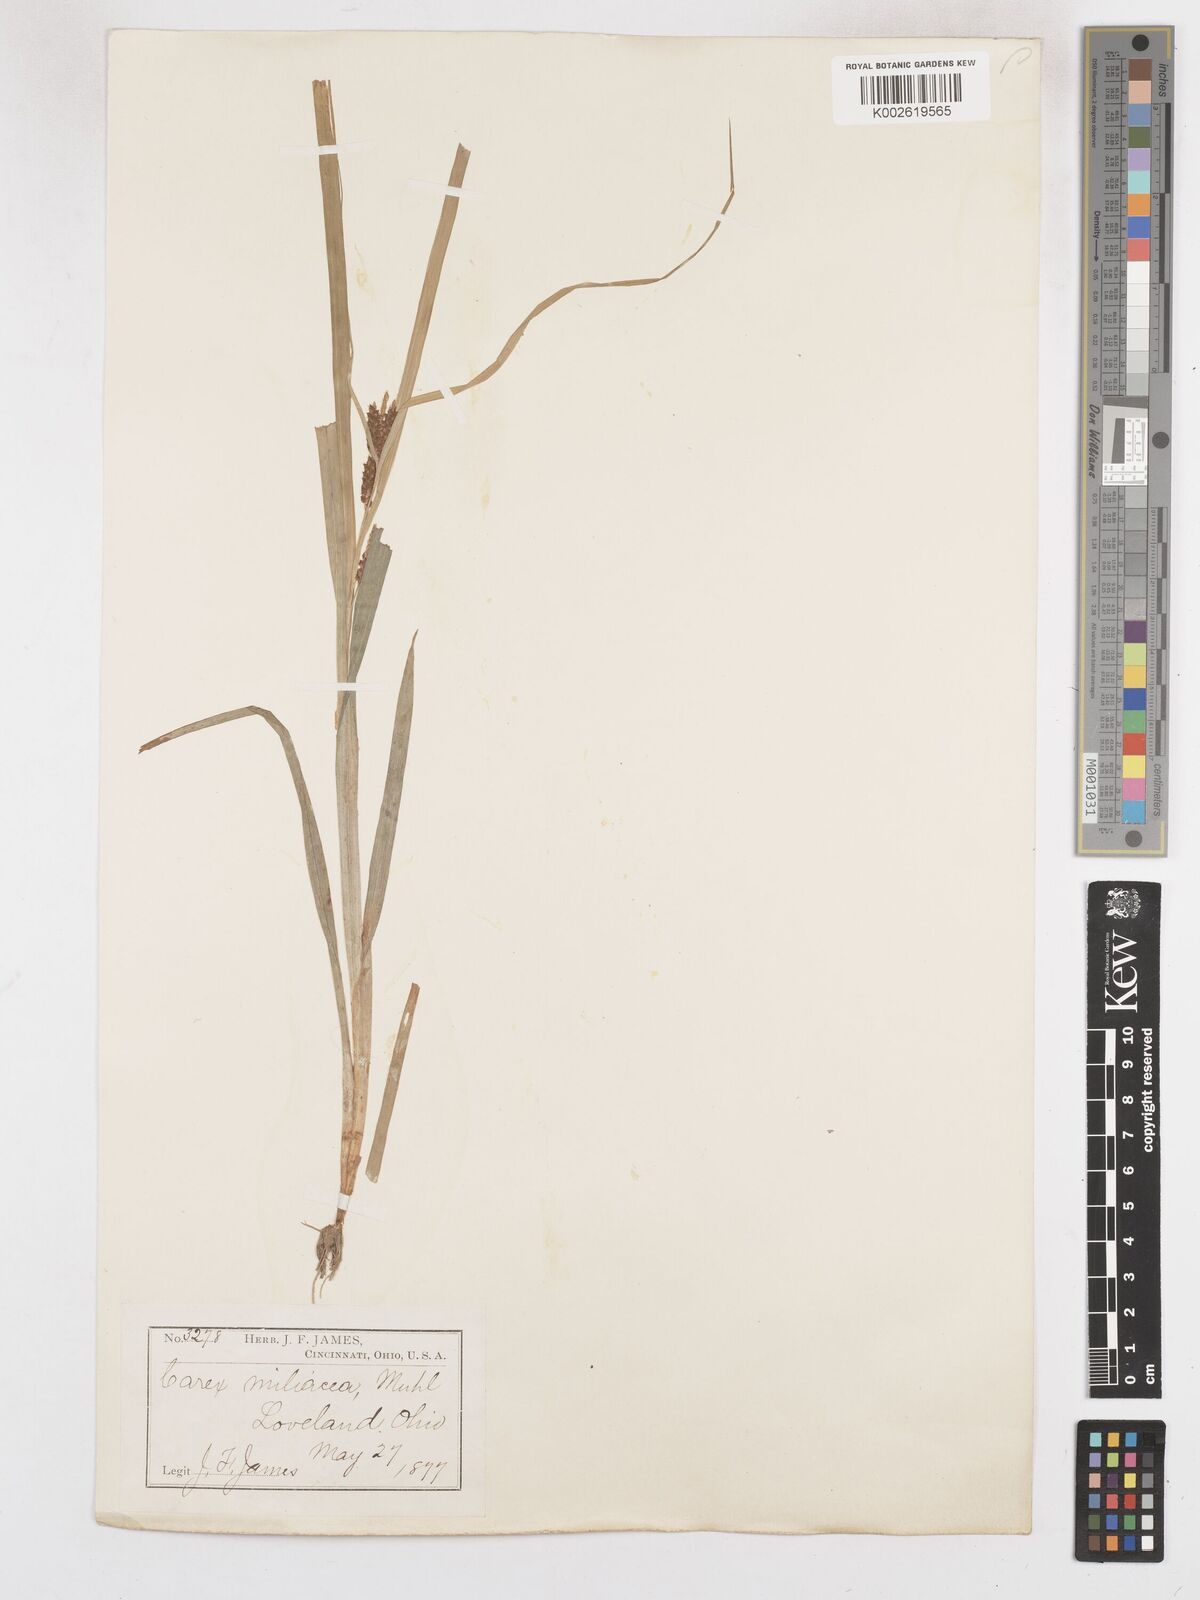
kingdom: Plantae
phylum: Tracheophyta
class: Liliopsida
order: Poales
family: Cyperaceae
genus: Carex
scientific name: Carex prasina
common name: Drooping sedge
